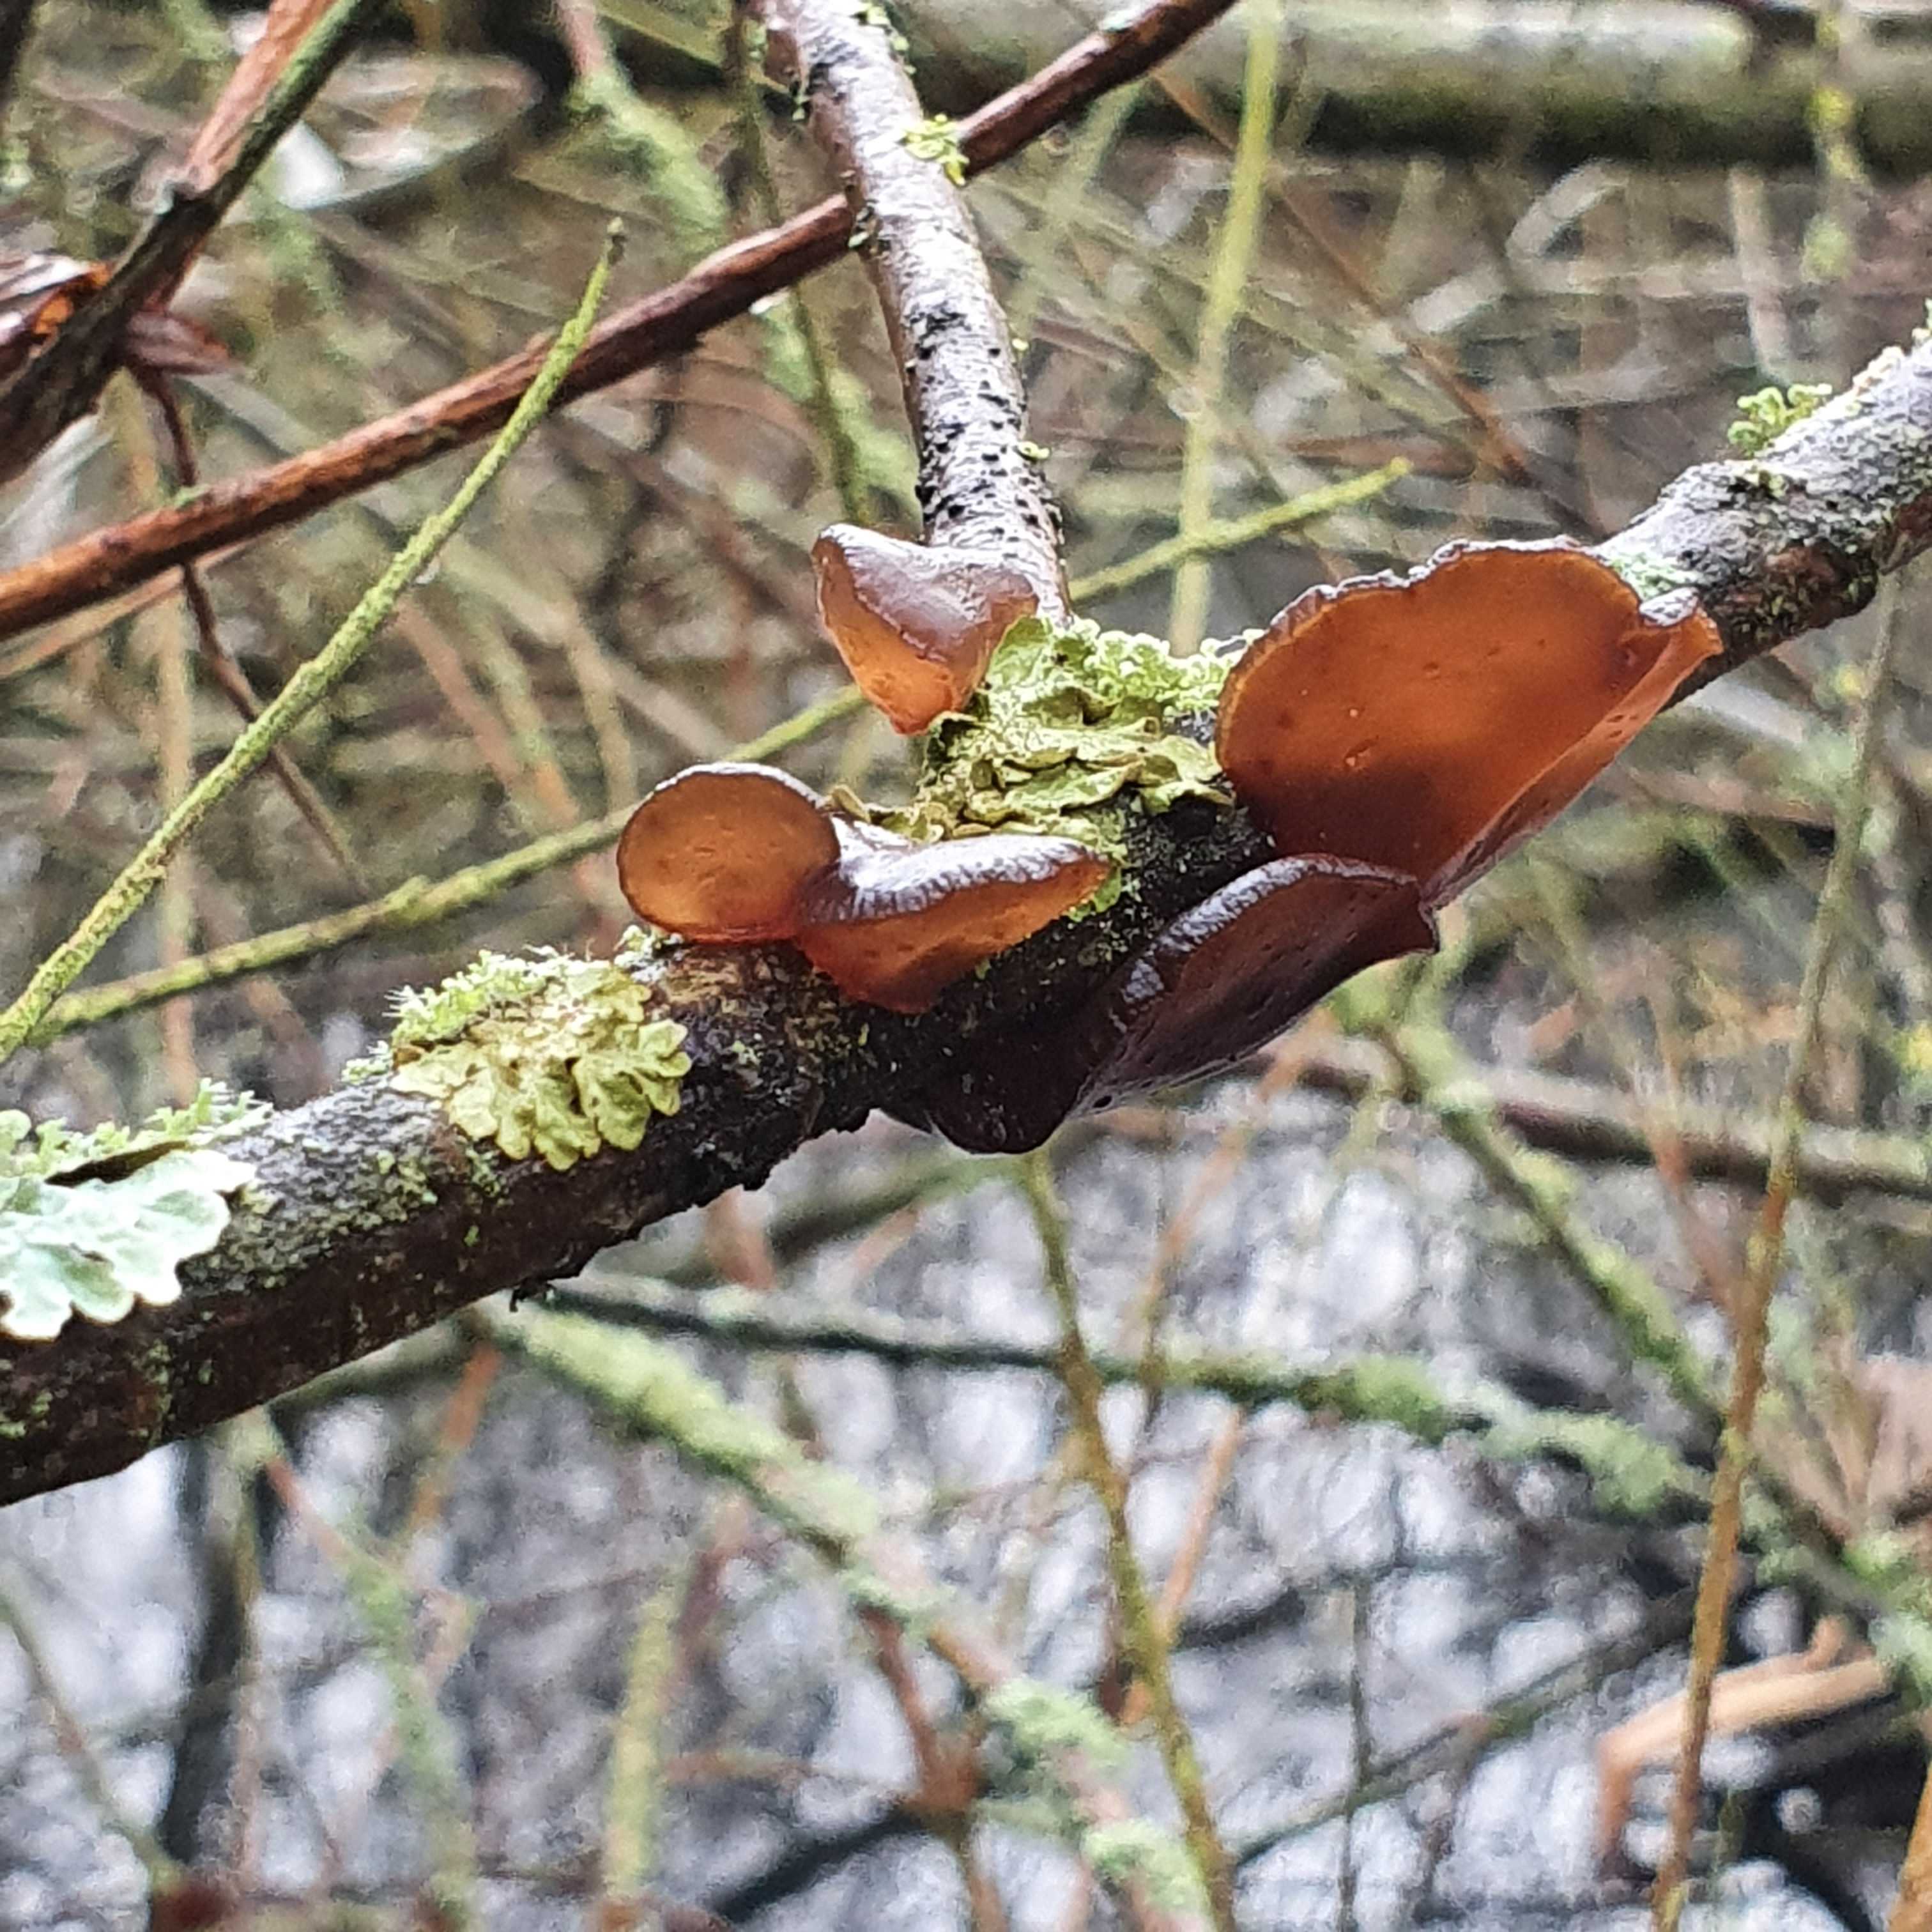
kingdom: Fungi
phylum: Basidiomycota
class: Agaricomycetes
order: Auriculariales
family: Auriculariaceae
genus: Exidia
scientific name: Exidia recisa
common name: pile-bævretop
